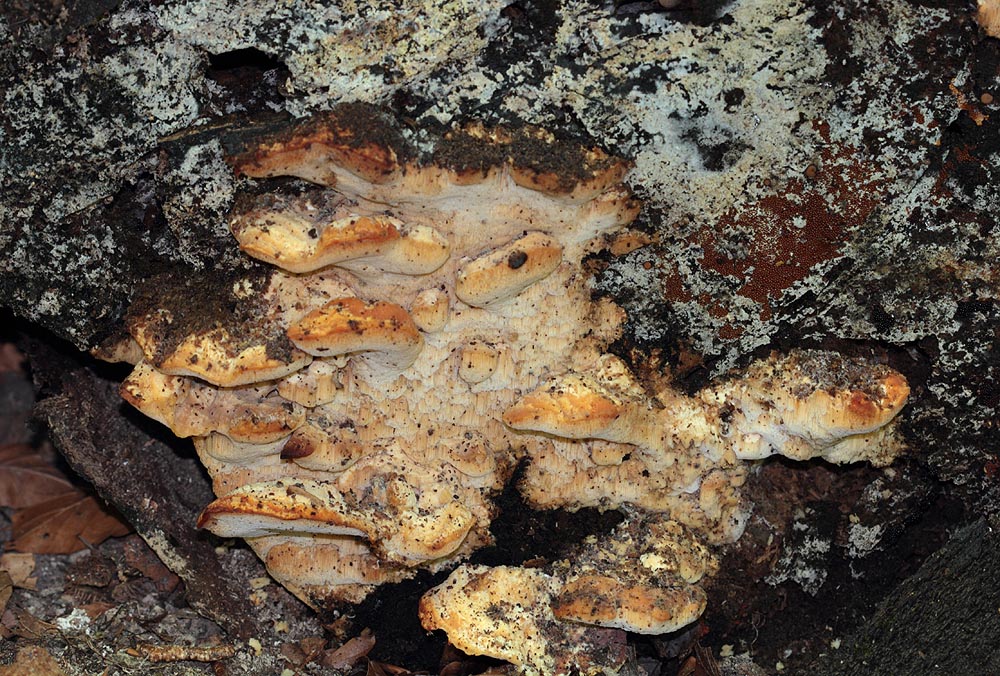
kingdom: Fungi
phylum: Basidiomycota
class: Agaricomycetes
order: Polyporales
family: Steccherinaceae
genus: Antrodiella
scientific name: Antrodiella mentschulensis
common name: abrikosporesvamp
